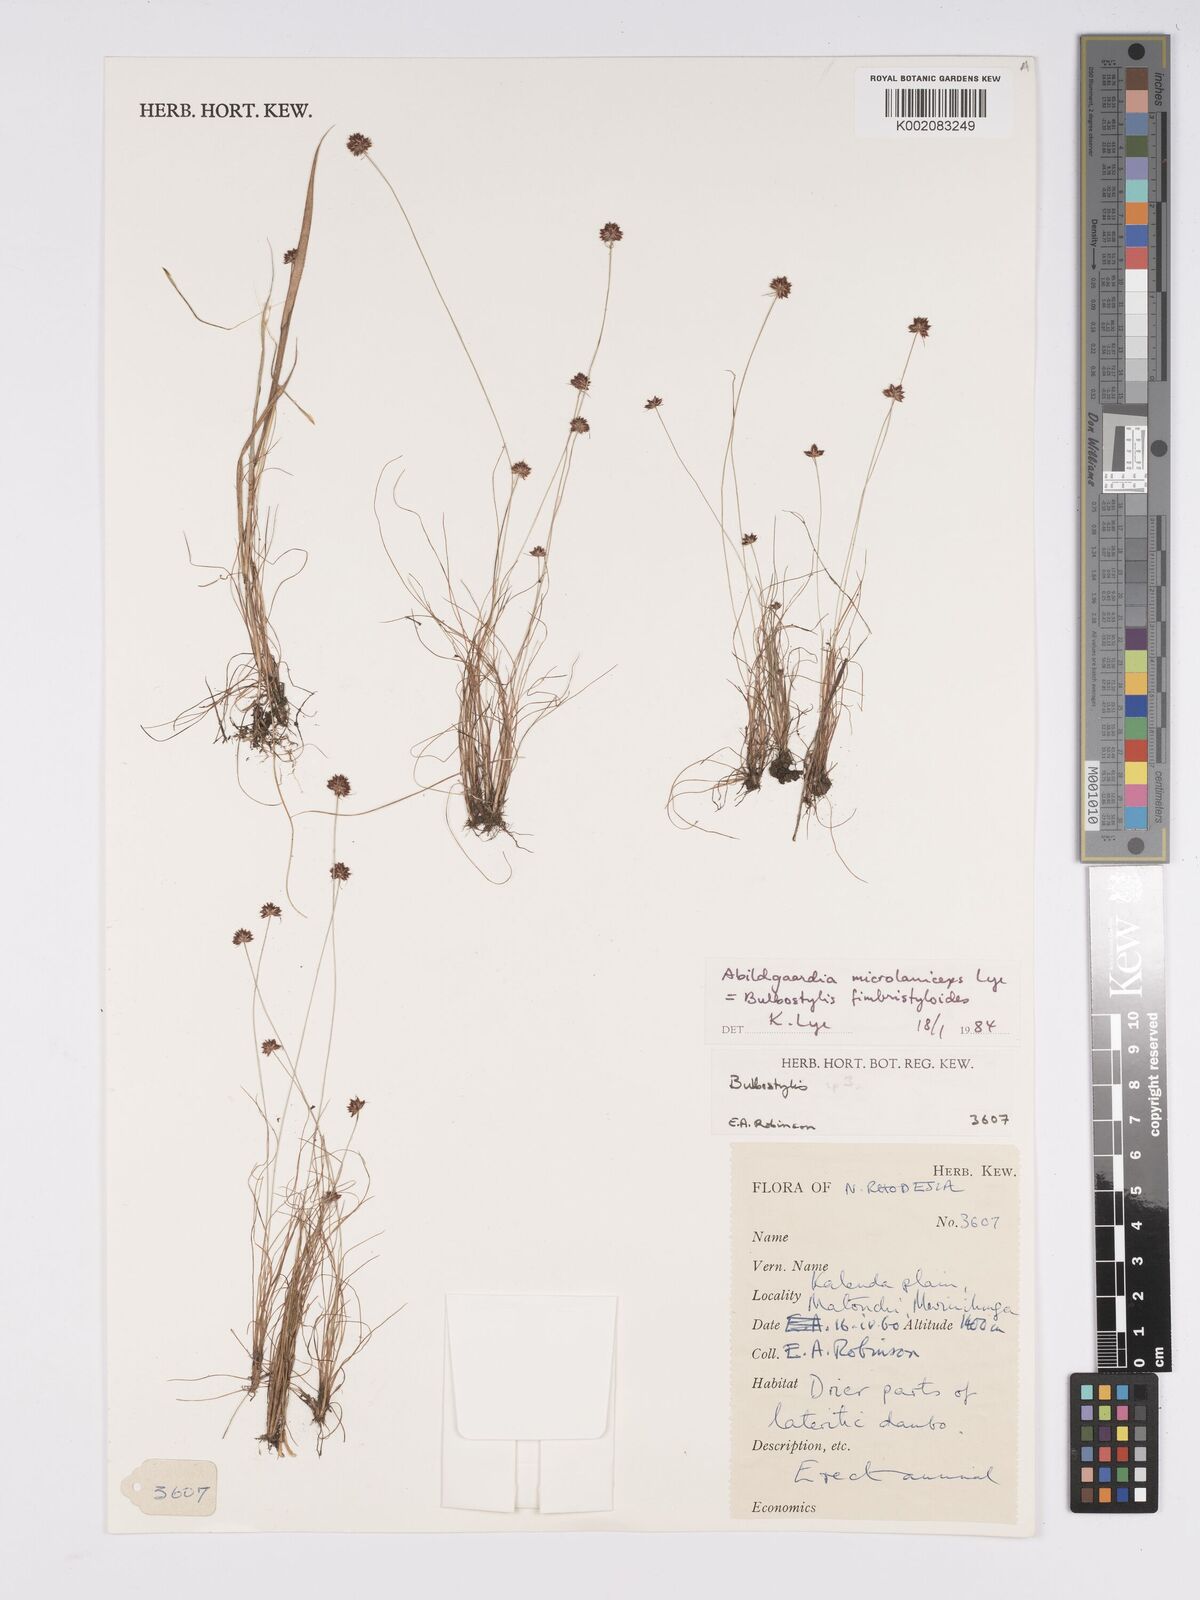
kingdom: Plantae
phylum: Tracheophyta
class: Liliopsida
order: Poales
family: Cyperaceae
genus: Bulbostylis
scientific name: Bulbostylis fimbristyloides
